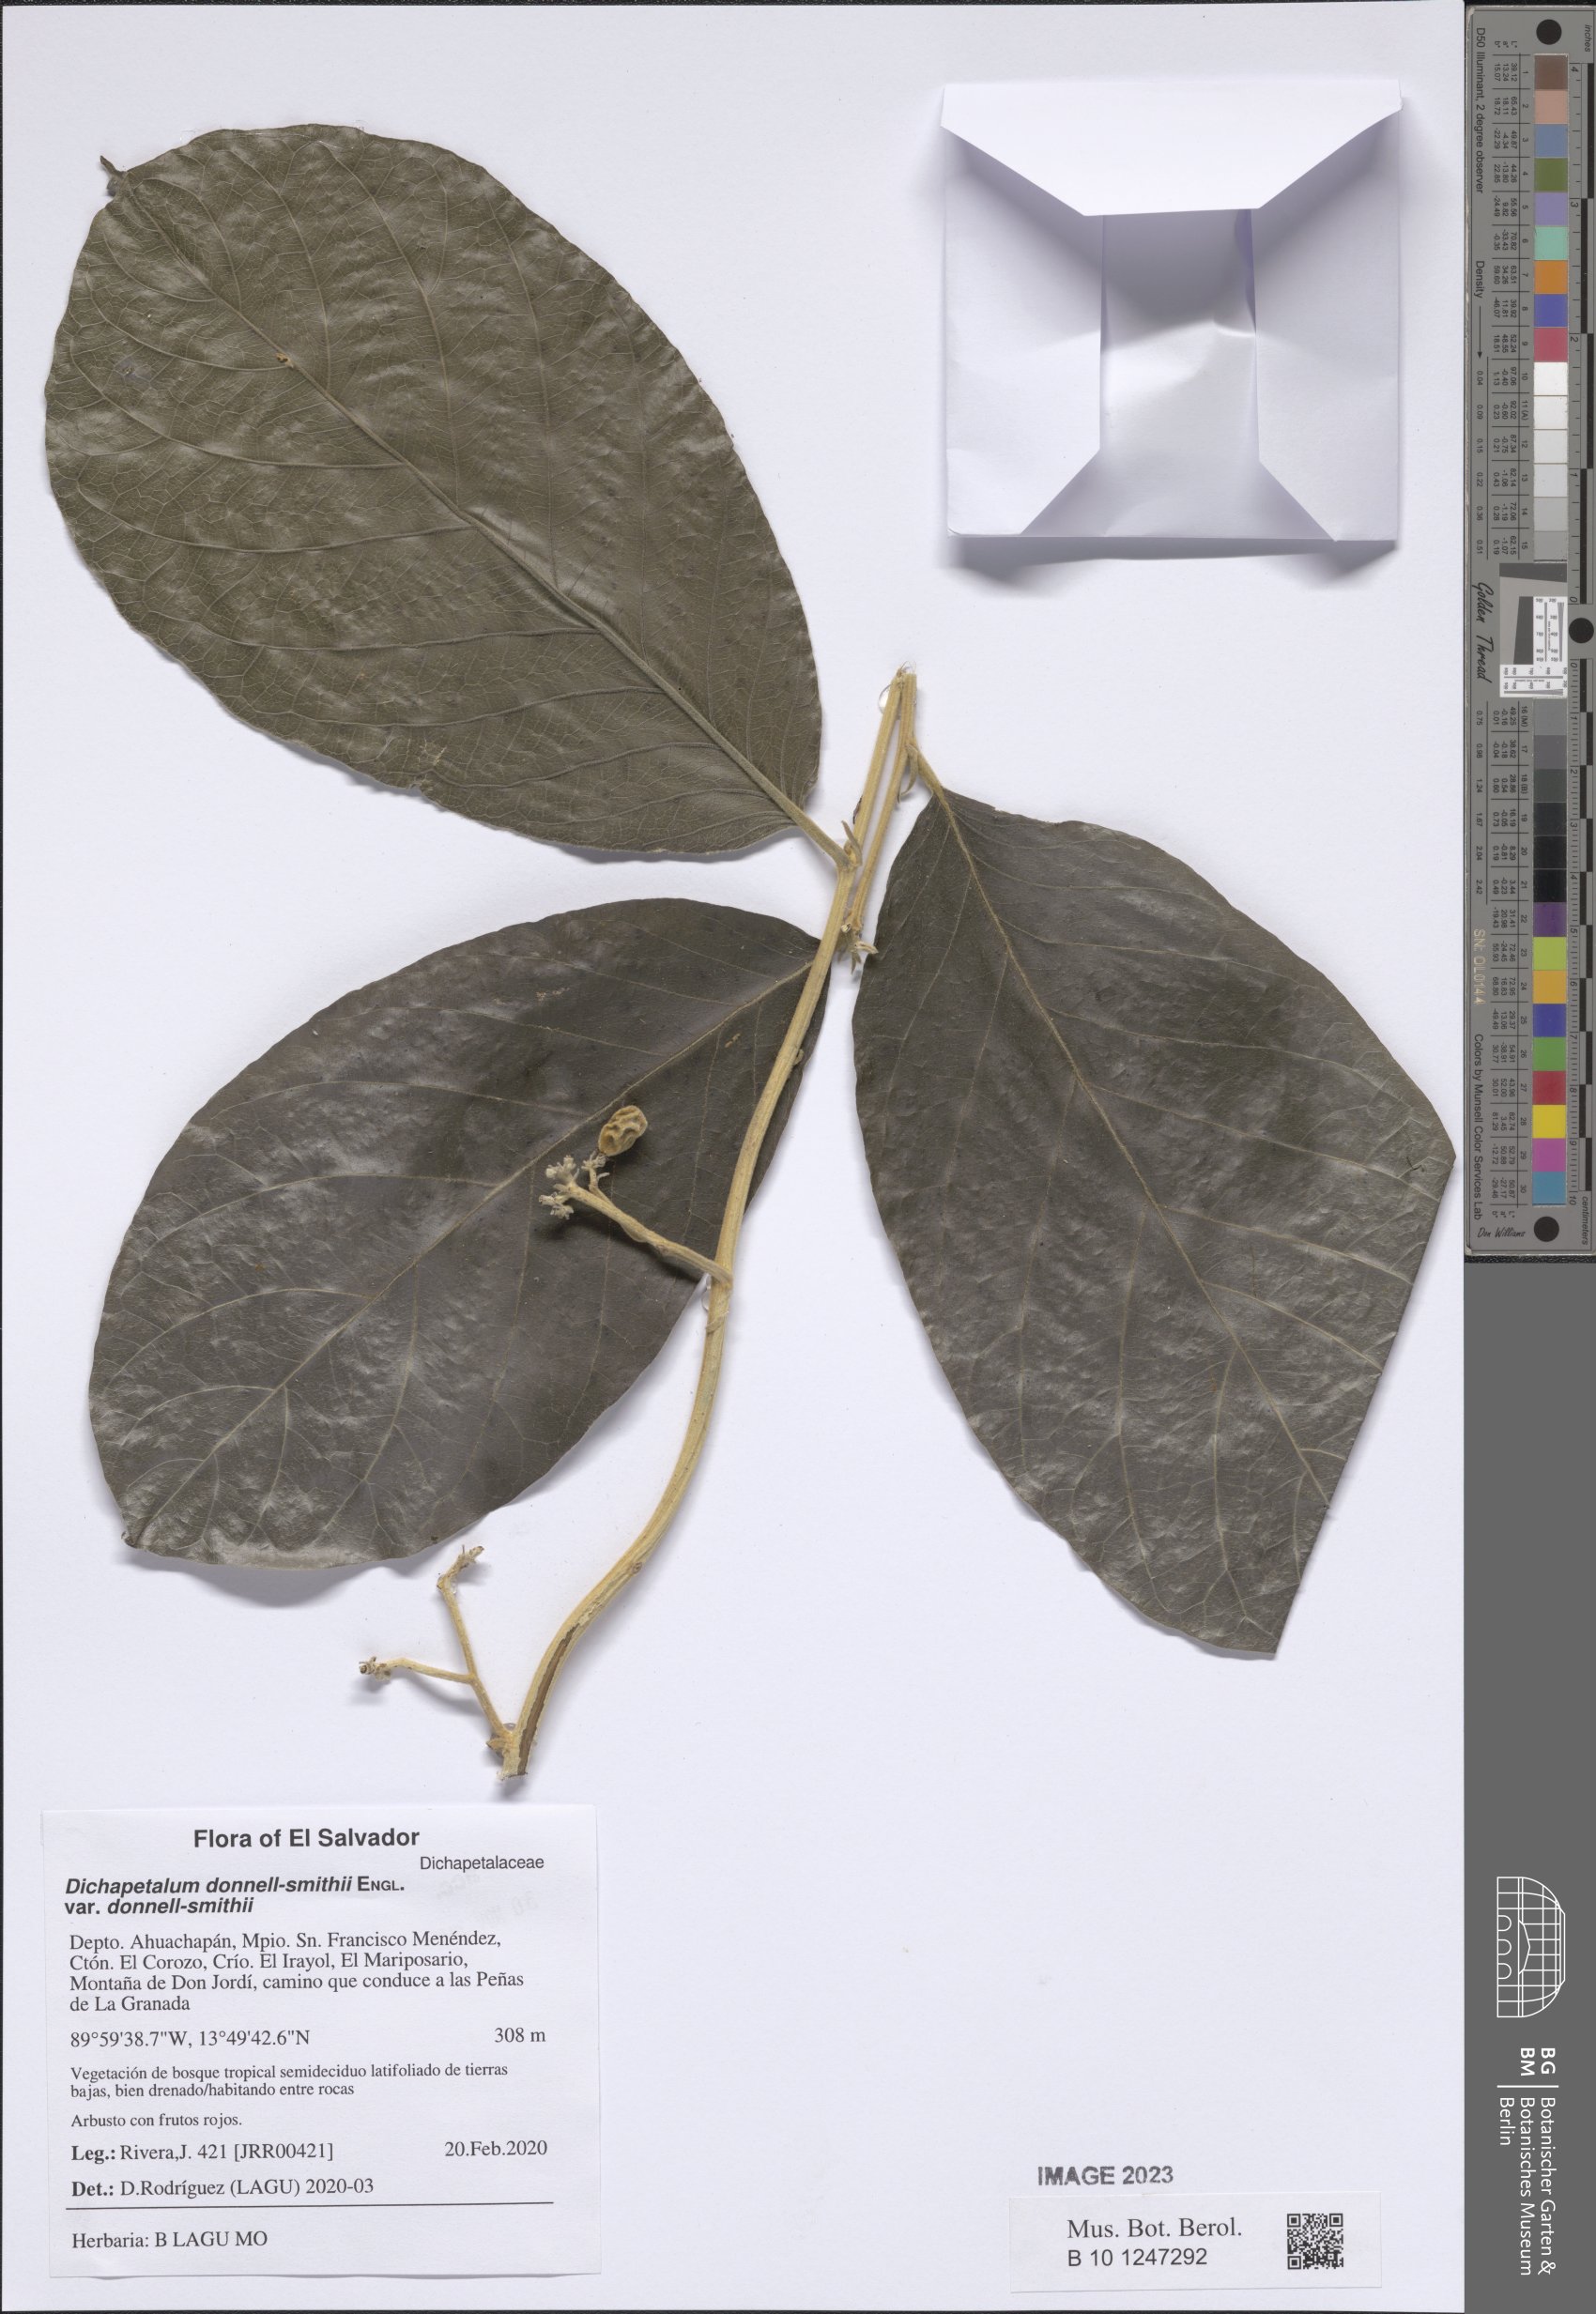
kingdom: Plantae
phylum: Tracheophyta
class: Magnoliopsida
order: Malpighiales
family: Dichapetalaceae
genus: Dichapetalum
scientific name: Dichapetalum donnell-smithii
